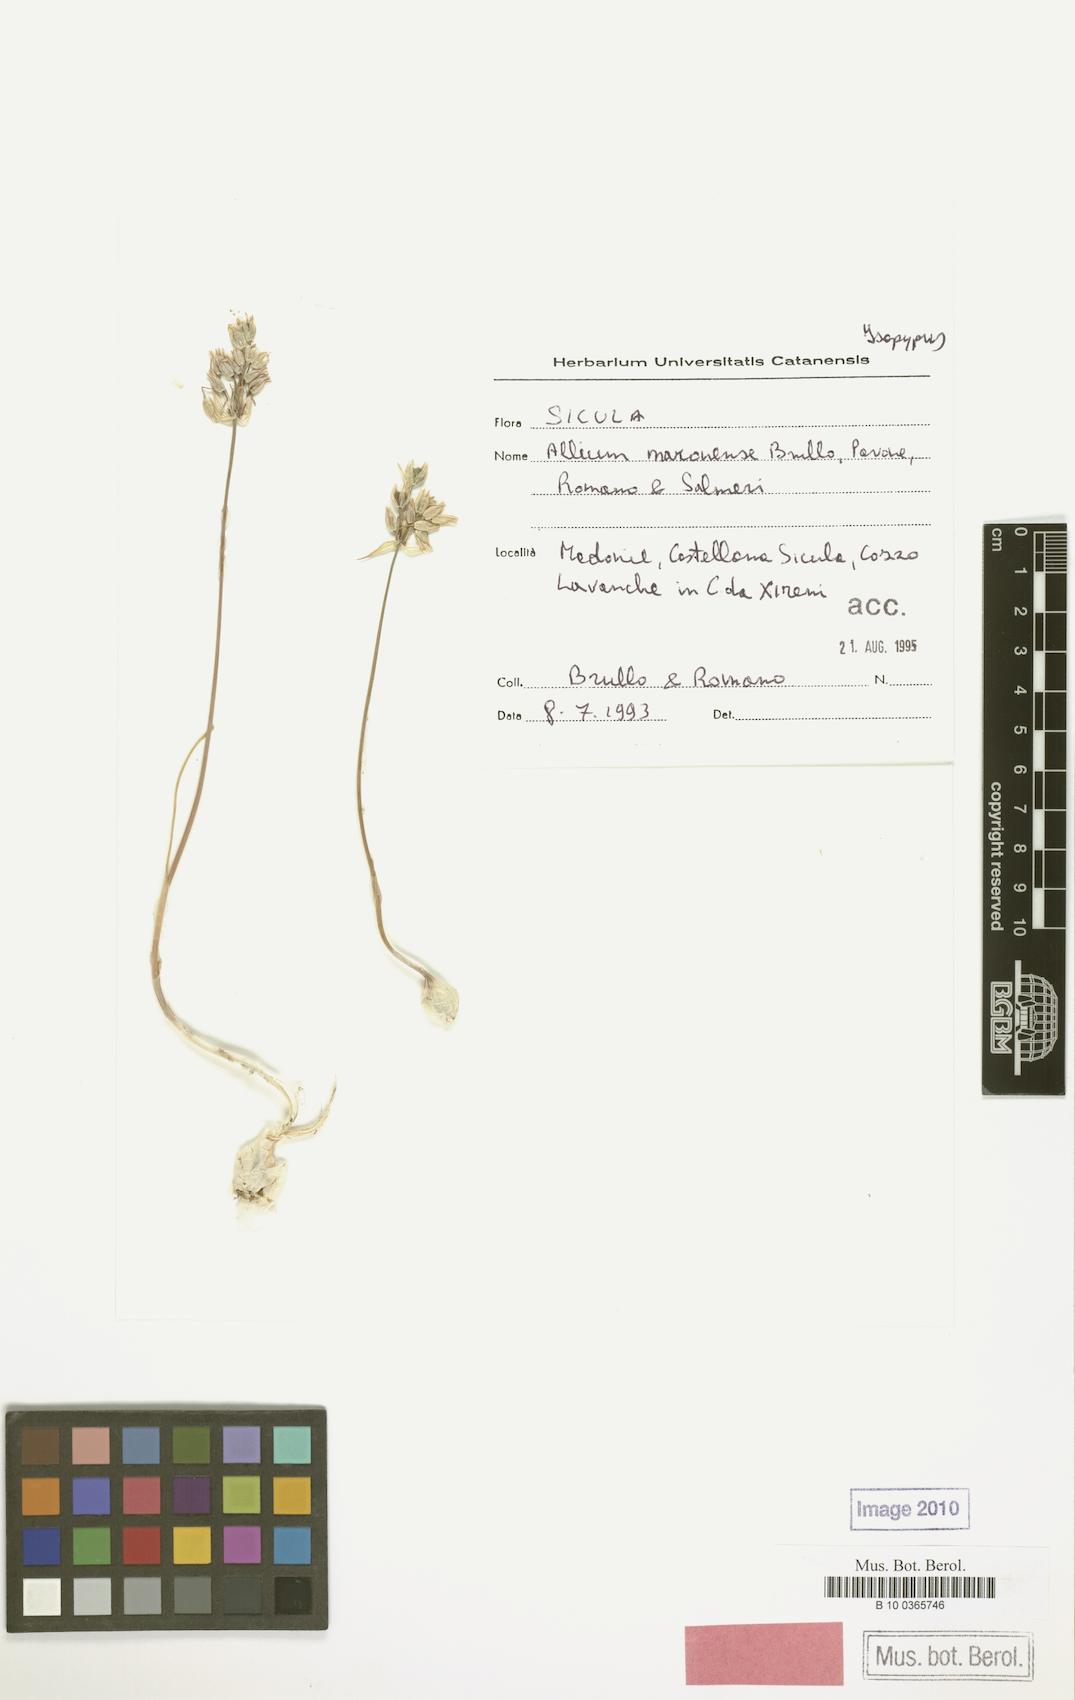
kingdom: Plantae
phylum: Tracheophyta
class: Liliopsida
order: Liliales
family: Liliaceae
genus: Allium
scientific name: Allium
